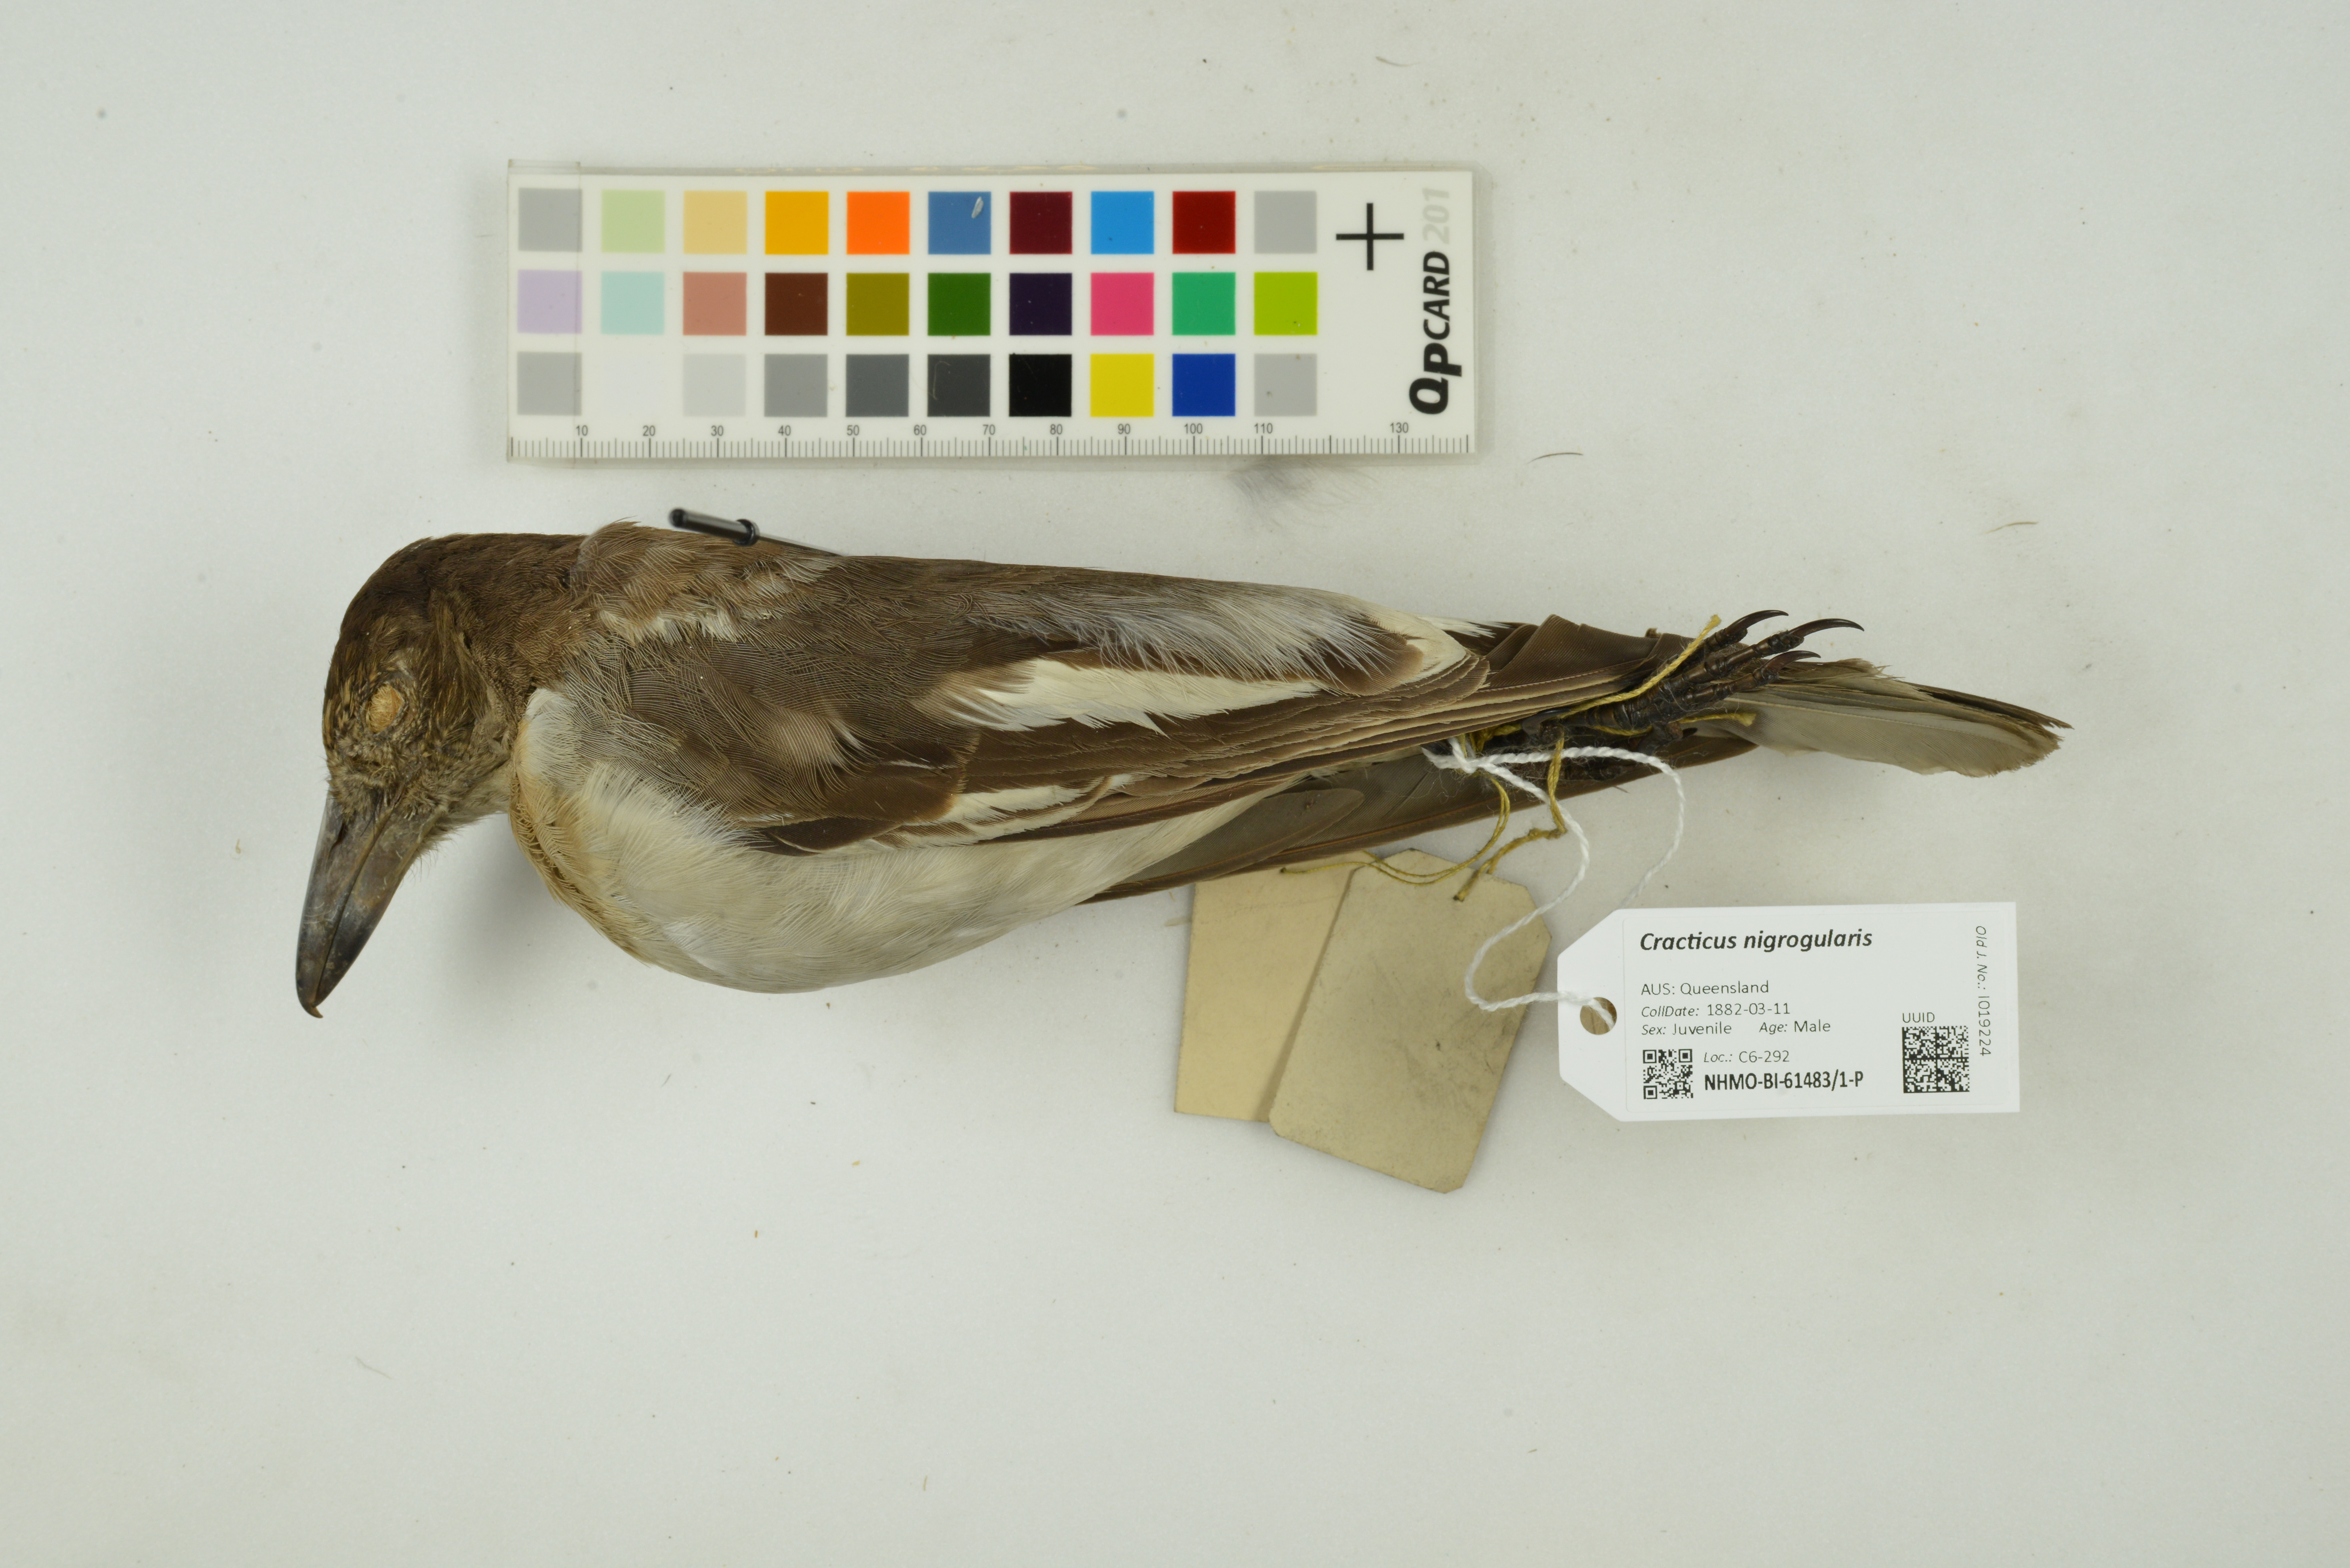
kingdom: Animalia
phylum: Chordata
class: Aves
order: Passeriformes
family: Cracticidae
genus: Cracticus
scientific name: Cracticus nigrogularis
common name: Pied butcherbird
